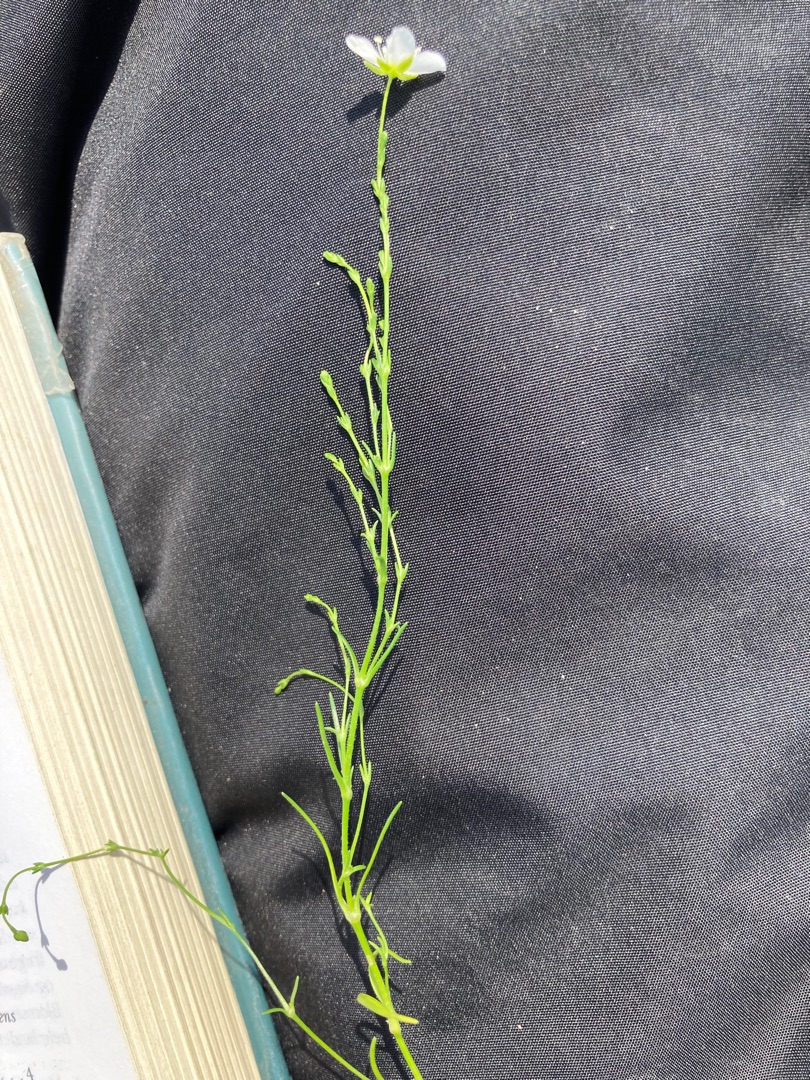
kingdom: Plantae
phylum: Tracheophyta
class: Magnoliopsida
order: Caryophyllales
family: Caryophyllaceae
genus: Sagina
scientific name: Sagina nodosa
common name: Knude-firling
